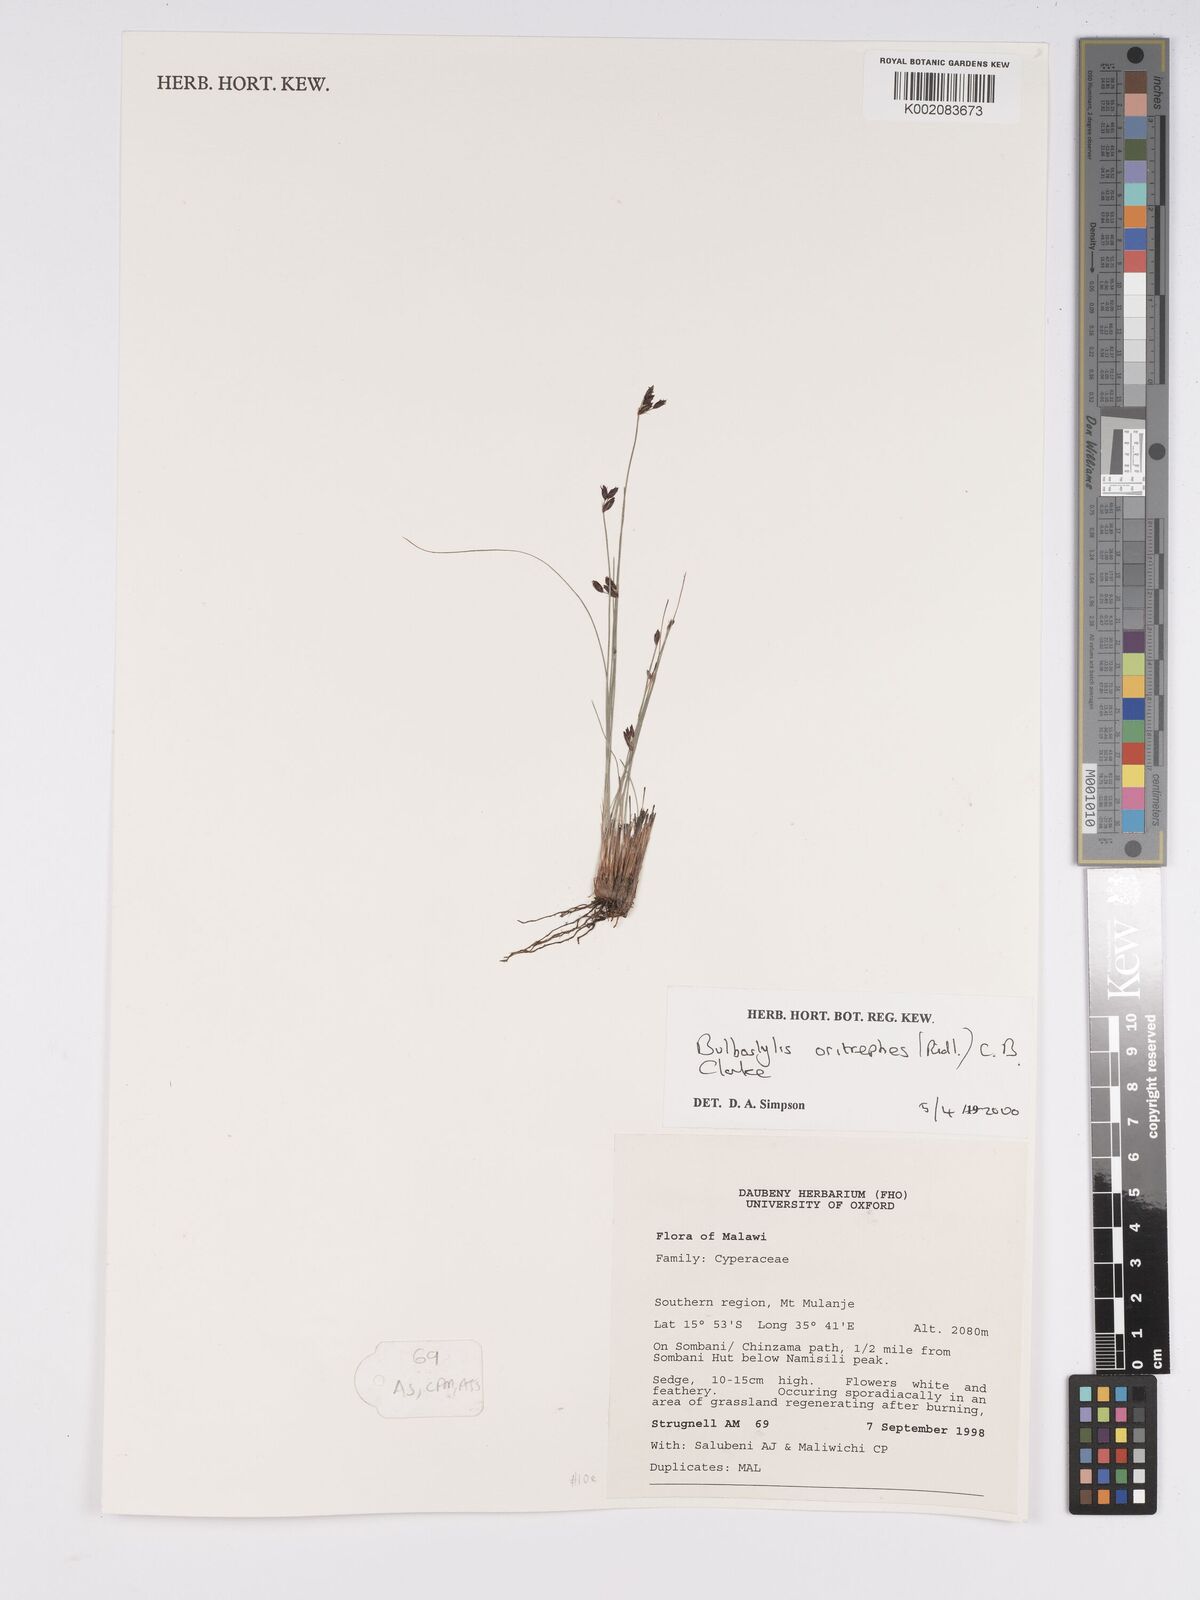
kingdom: Plantae
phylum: Tracheophyta
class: Liliopsida
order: Poales
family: Cyperaceae
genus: Bulbostylis
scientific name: Bulbostylis oritrephes
